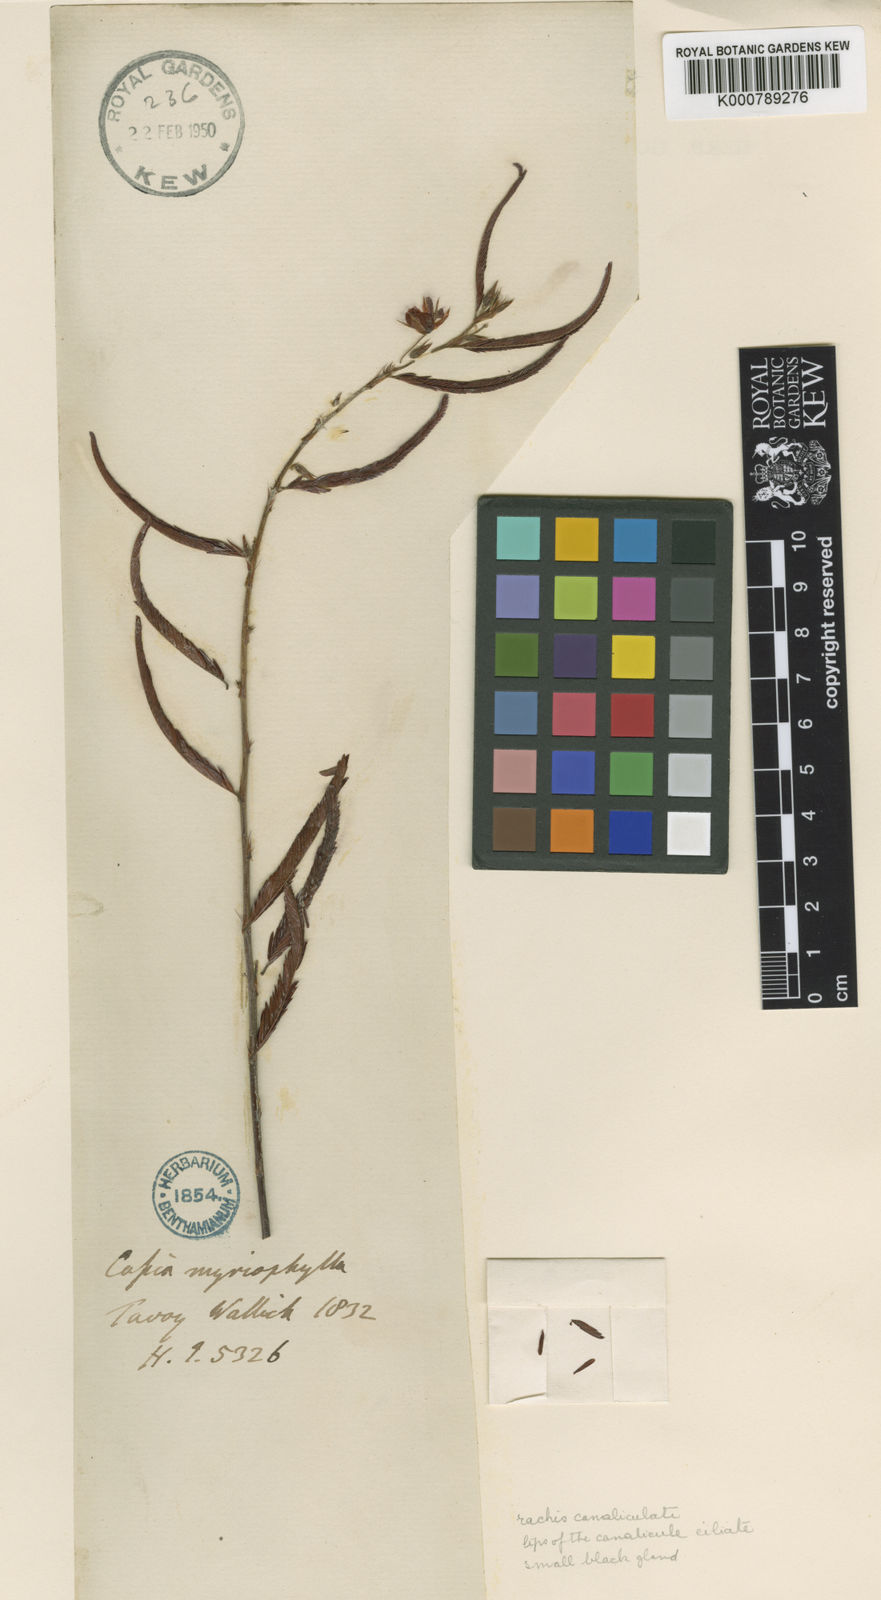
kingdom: Plantae
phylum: Tracheophyta
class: Magnoliopsida
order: Fabales
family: Fabaceae
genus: Chamaecrista
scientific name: Chamaecrista mimosoides
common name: Fish-bone cassia
